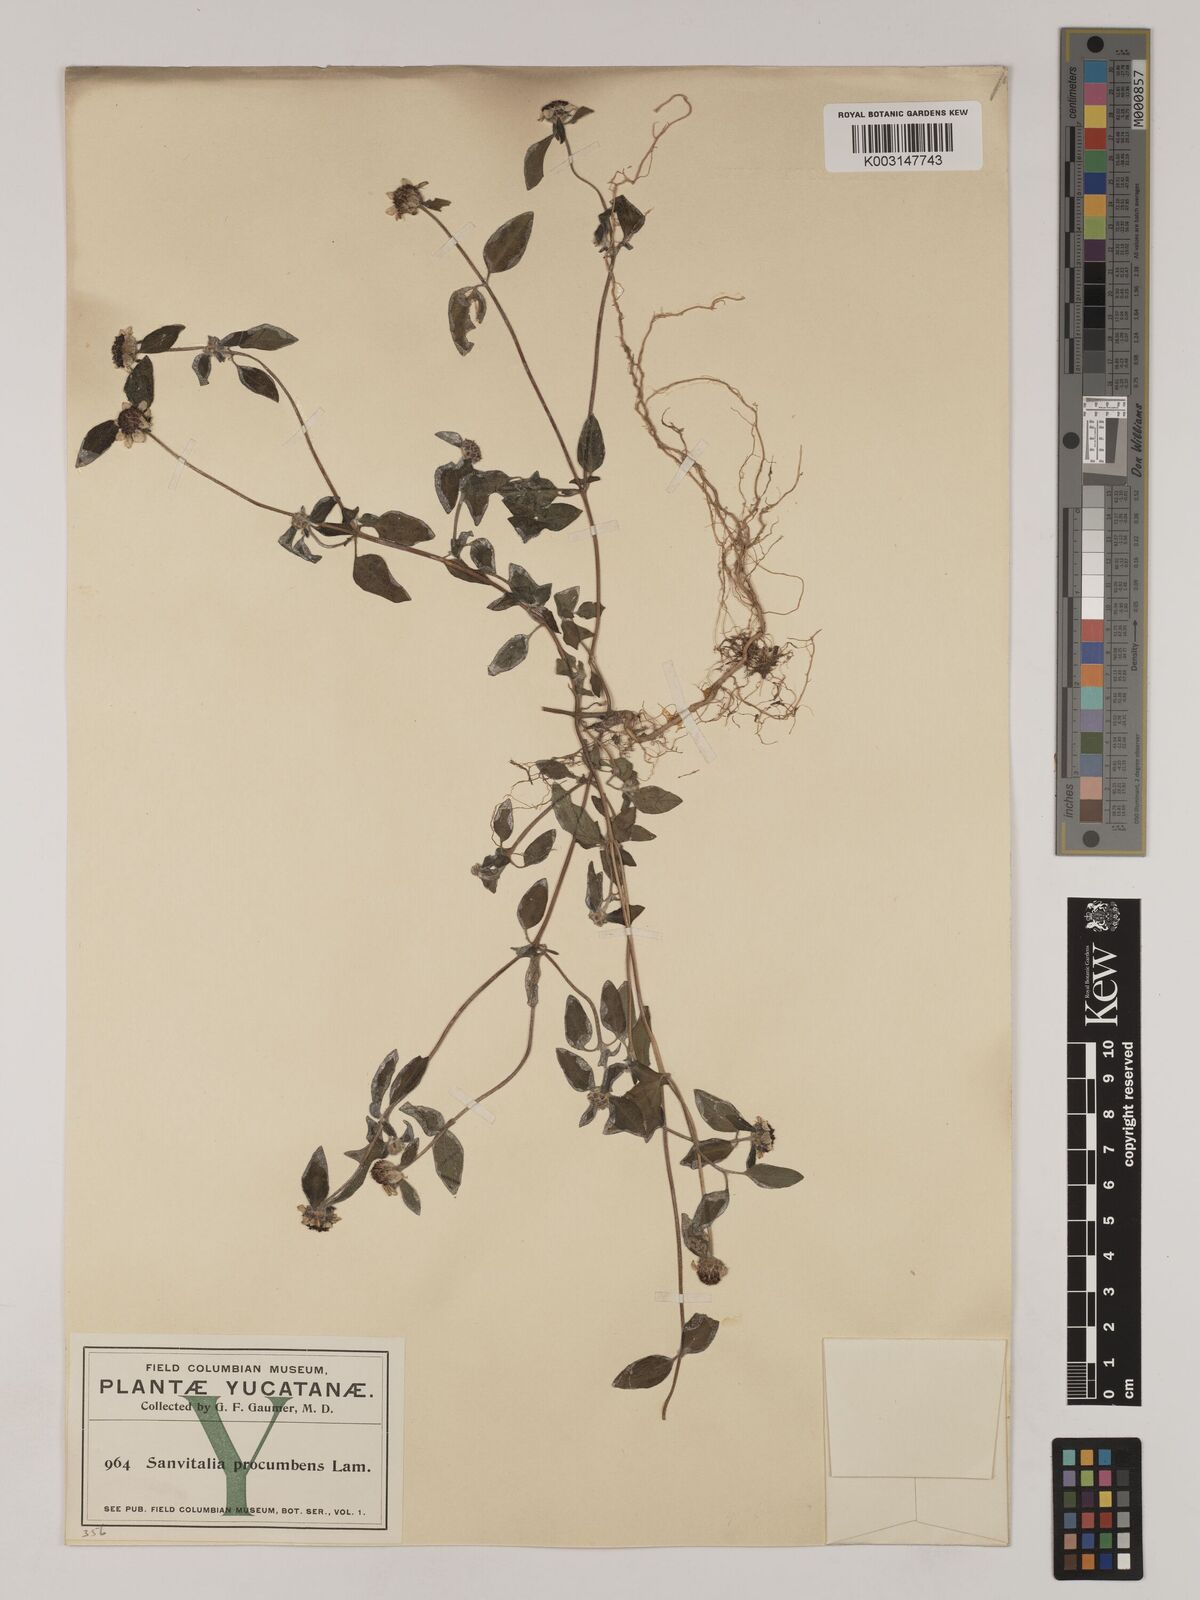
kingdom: Plantae
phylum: Tracheophyta
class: Magnoliopsida
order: Asterales
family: Asteraceae
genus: Sanvitalia
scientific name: Sanvitalia procumbens
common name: Mexican creeping zinnia
